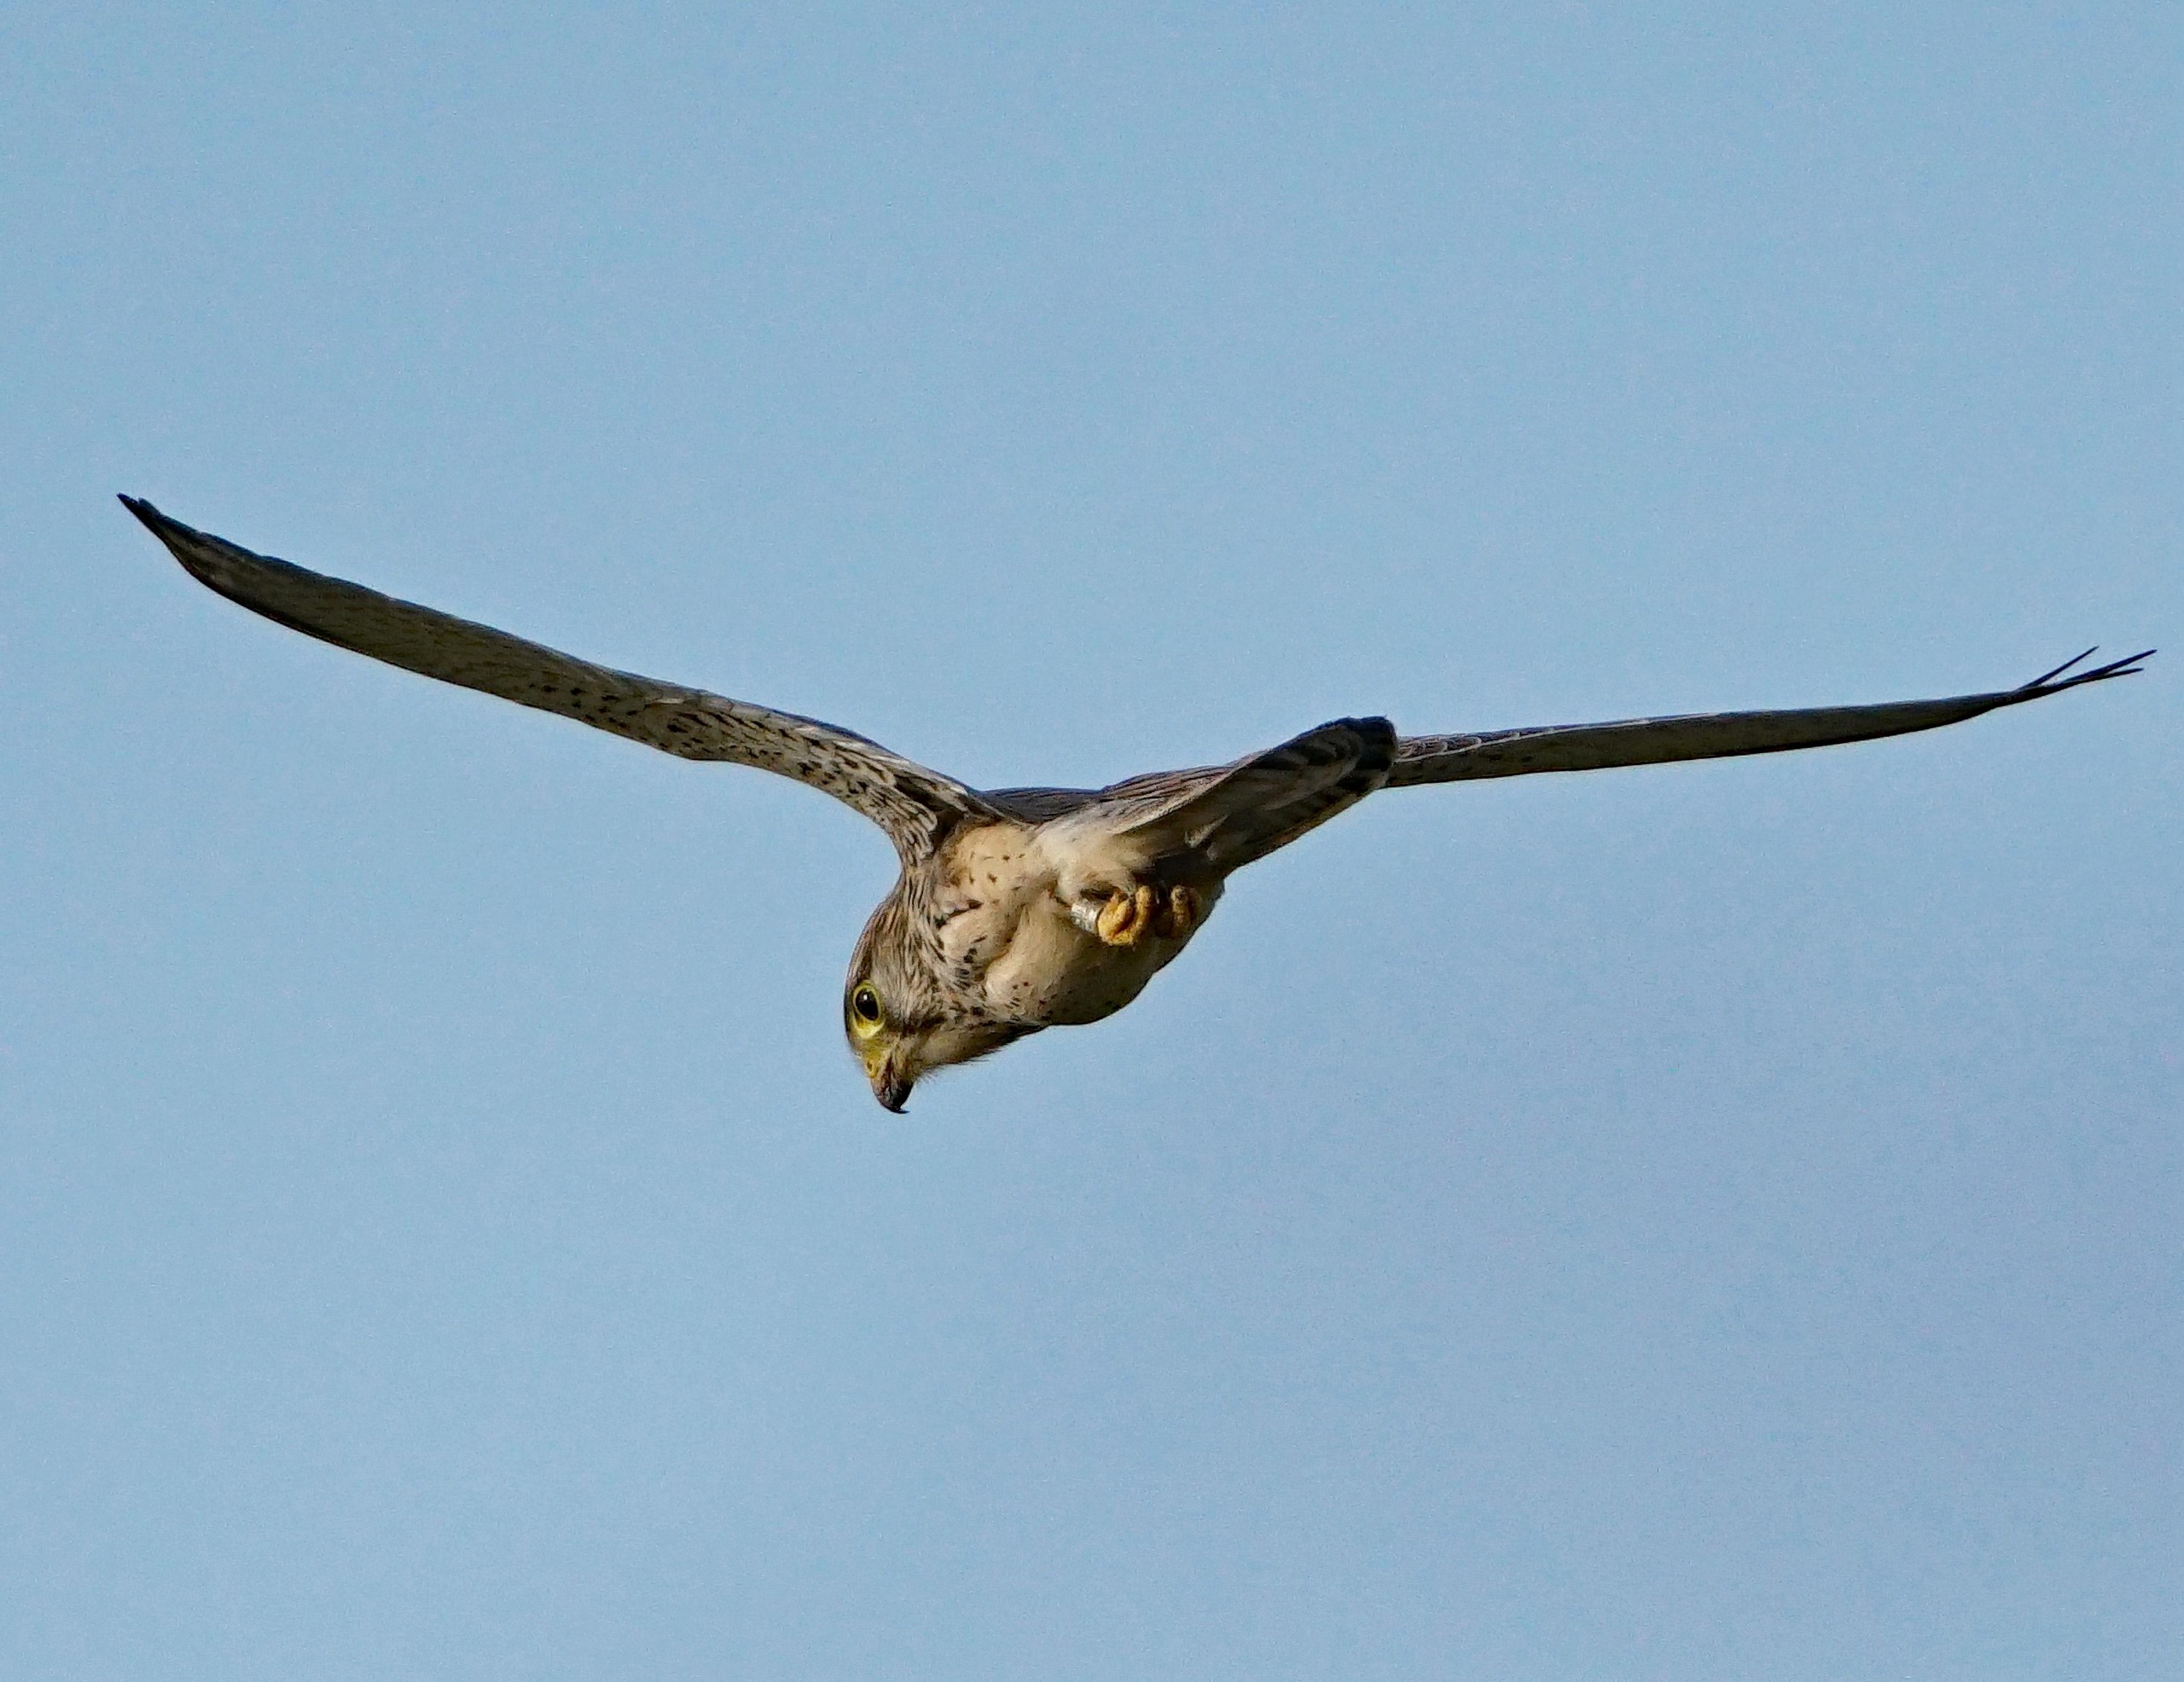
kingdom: Animalia
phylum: Chordata
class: Aves
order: Falconiformes
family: Falconidae
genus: Falco
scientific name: Falco tinnunculus
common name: Tårnfalk
